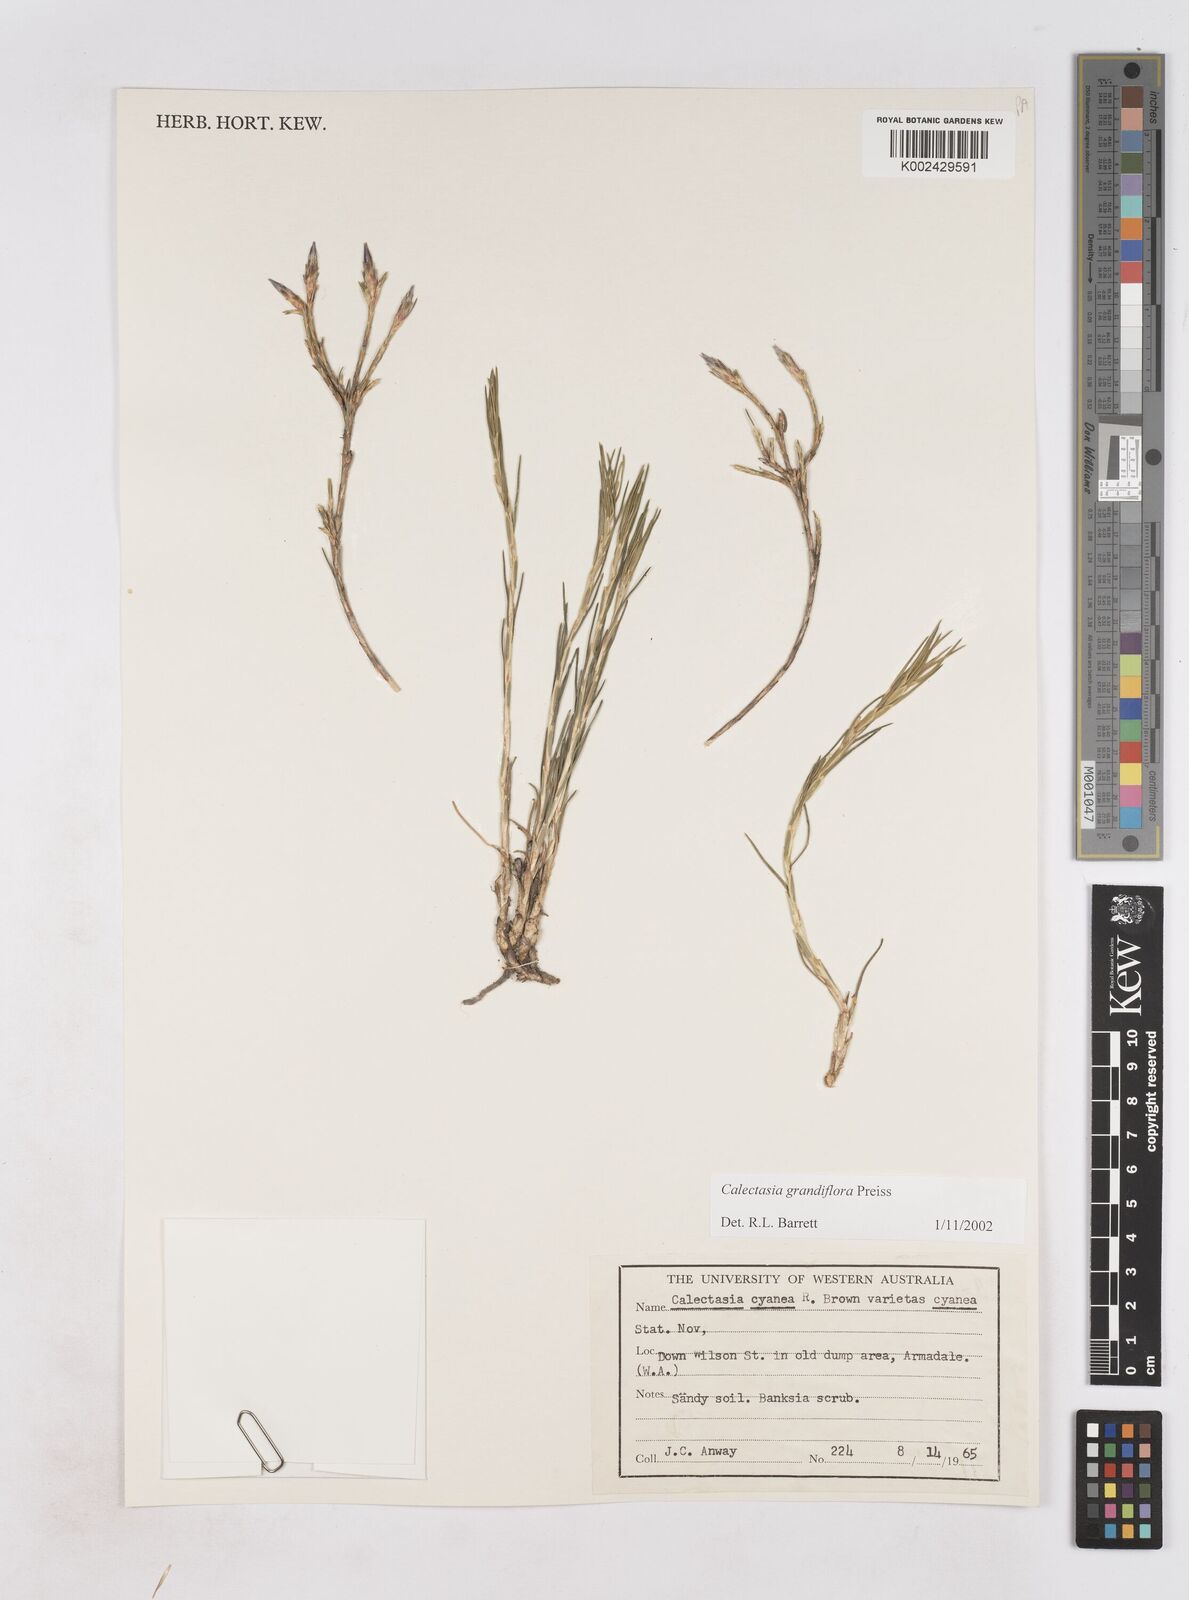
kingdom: Plantae
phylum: Tracheophyta
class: Liliopsida
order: Arecales
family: Dasypogonaceae
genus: Calectasia
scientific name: Calectasia grandiflora
